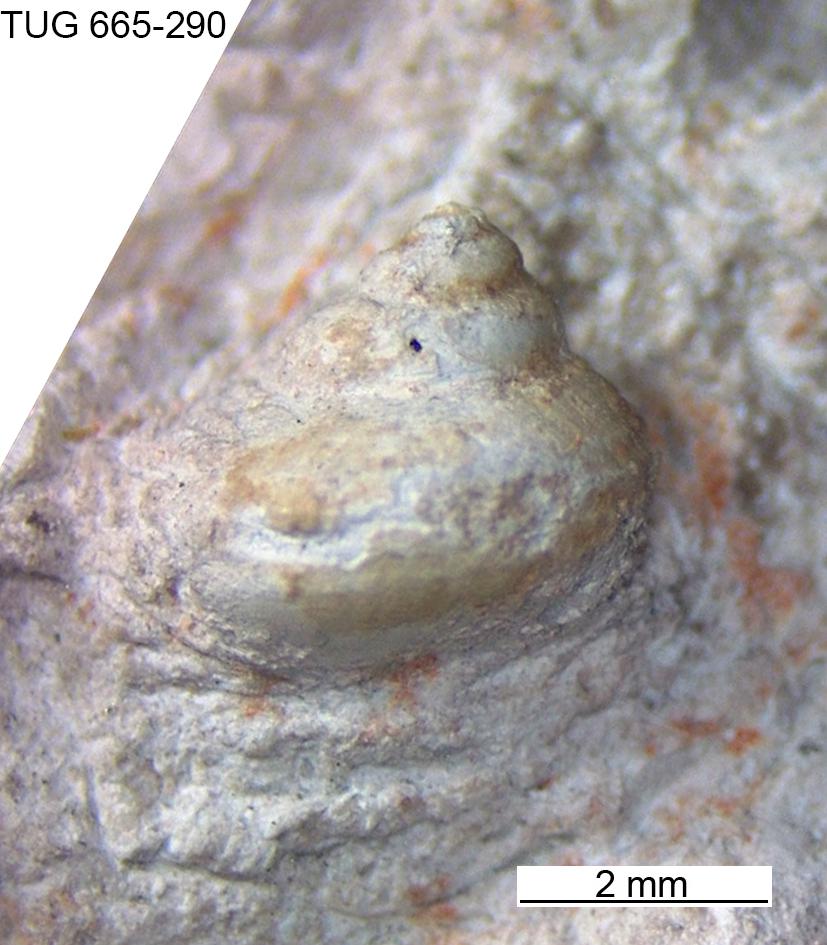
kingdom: Animalia
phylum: Mollusca
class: Gastropoda
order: Pleurotomariida
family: Gosseletinidae
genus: Cataschisma
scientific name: Cataschisma Globispira nitida
